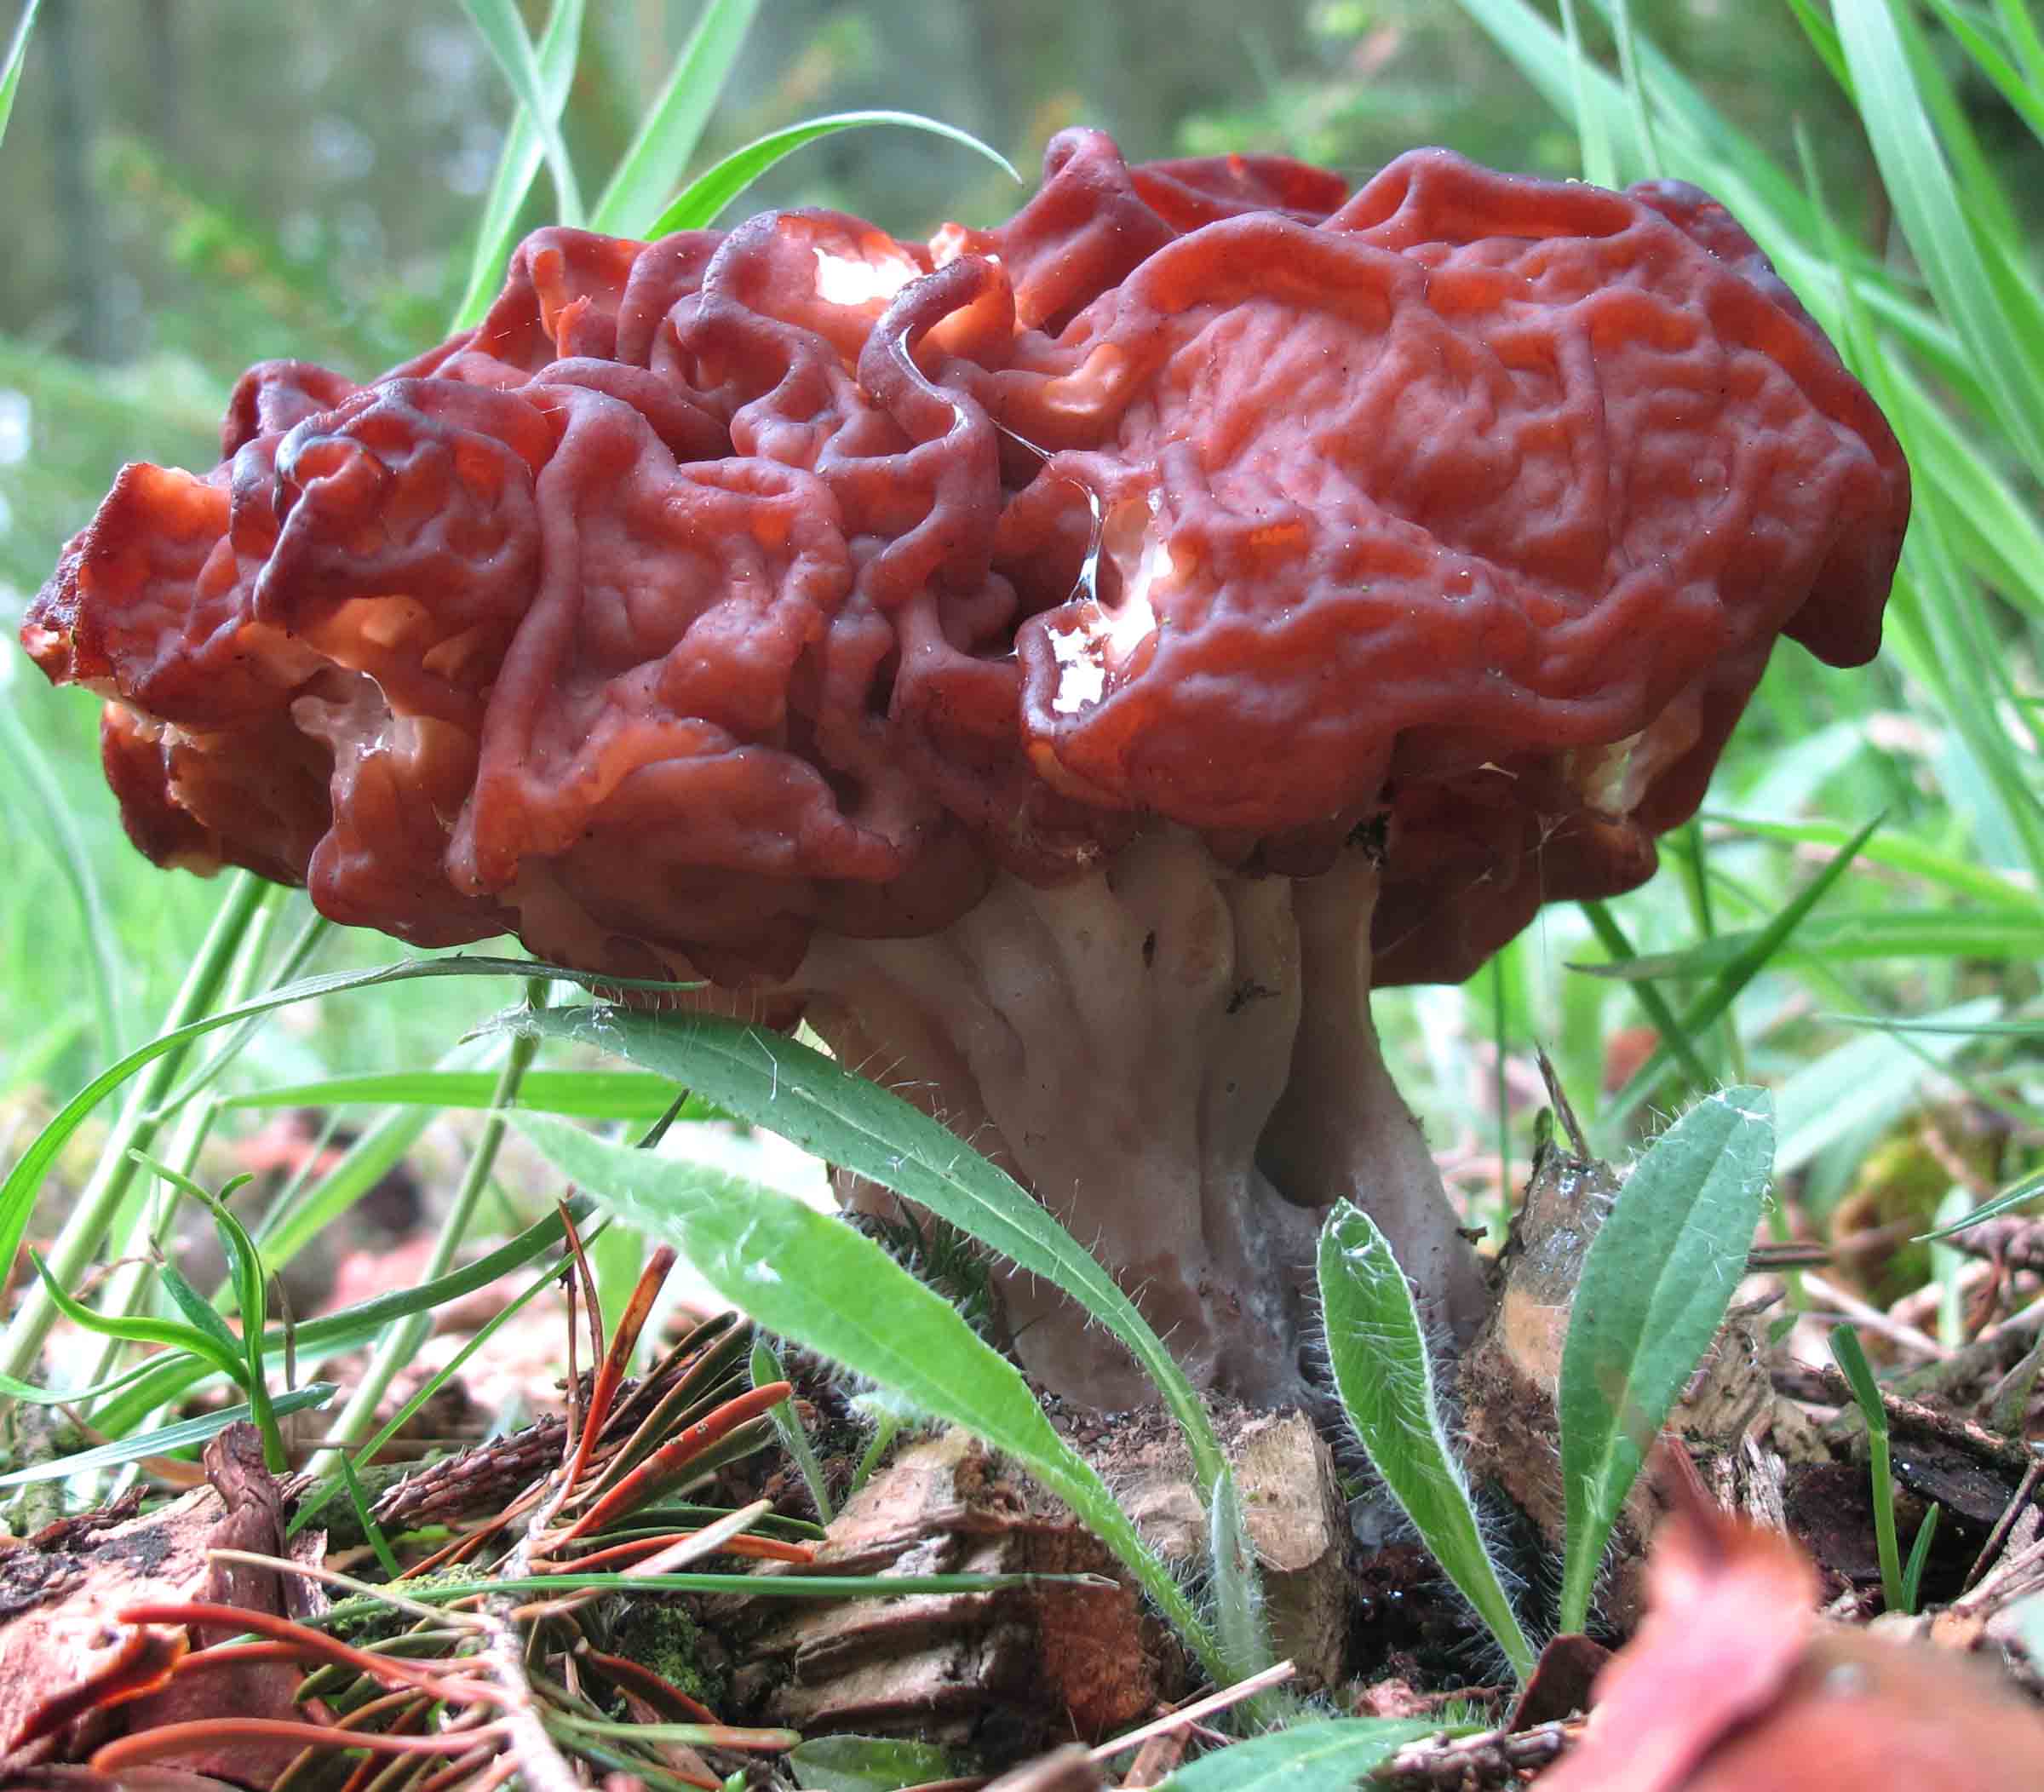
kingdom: Fungi
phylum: Ascomycota
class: Pezizomycetes
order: Pezizales
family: Discinaceae
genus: Gyromitra
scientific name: Gyromitra esculenta
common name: ægte stenmorkel
